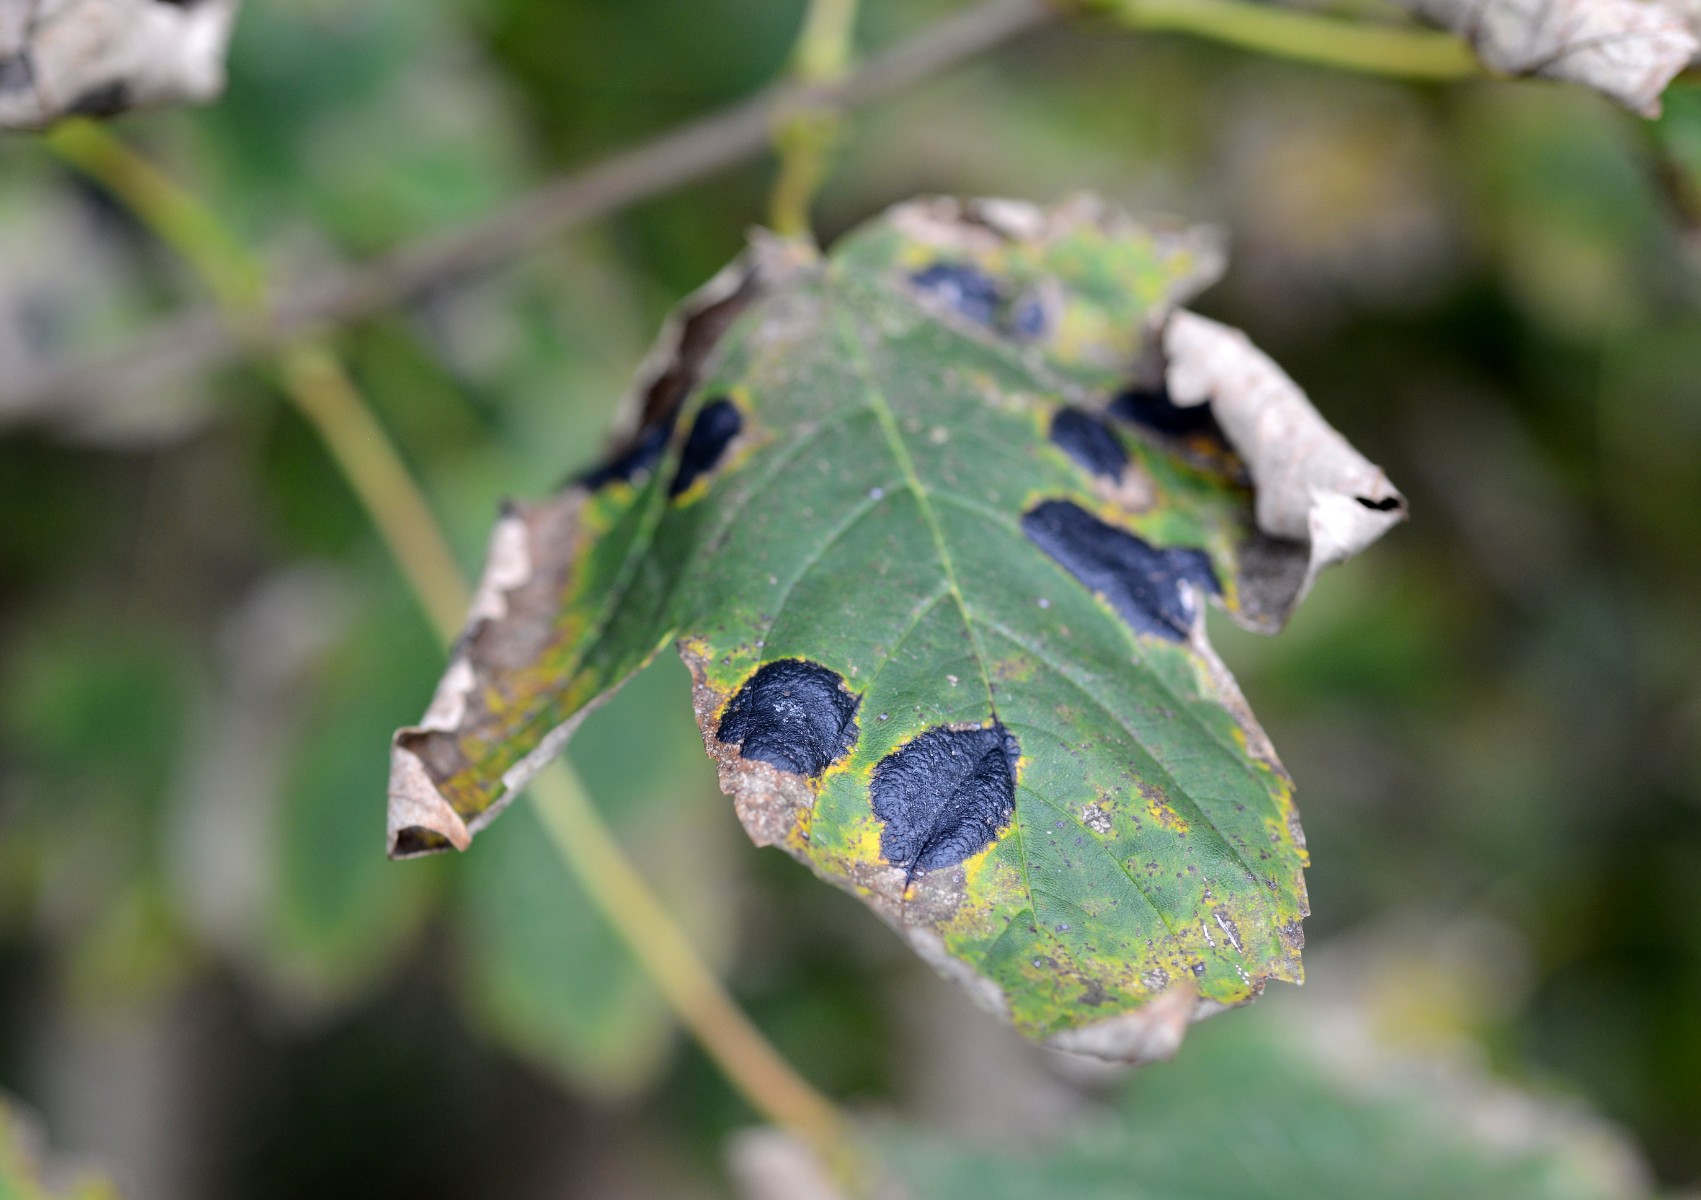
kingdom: Fungi
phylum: Ascomycota
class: Leotiomycetes
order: Rhytismatales
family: Rhytismataceae
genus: Rhytisma
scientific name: Rhytisma acerinum
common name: ahorn-rynkeplet
